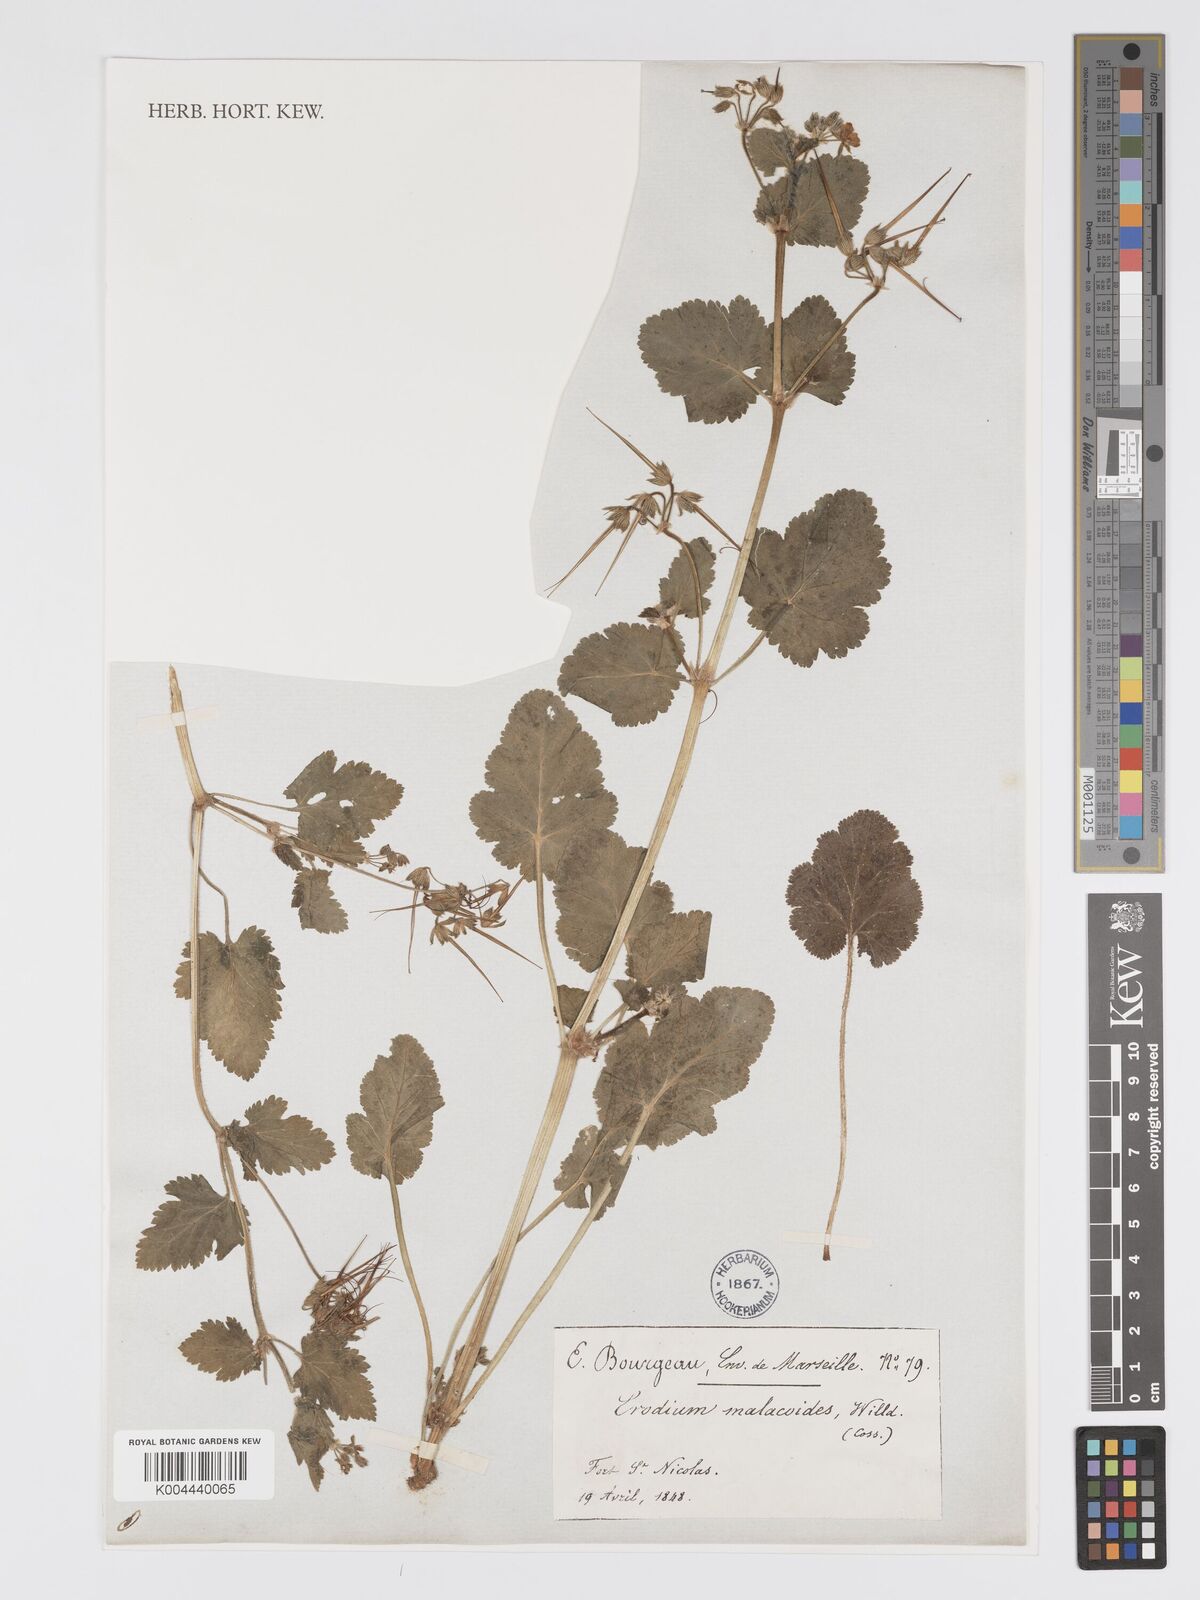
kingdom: Plantae
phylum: Tracheophyta
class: Magnoliopsida
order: Geraniales
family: Geraniaceae
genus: Erodium
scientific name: Erodium malacoides
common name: Soft stork's-bill
